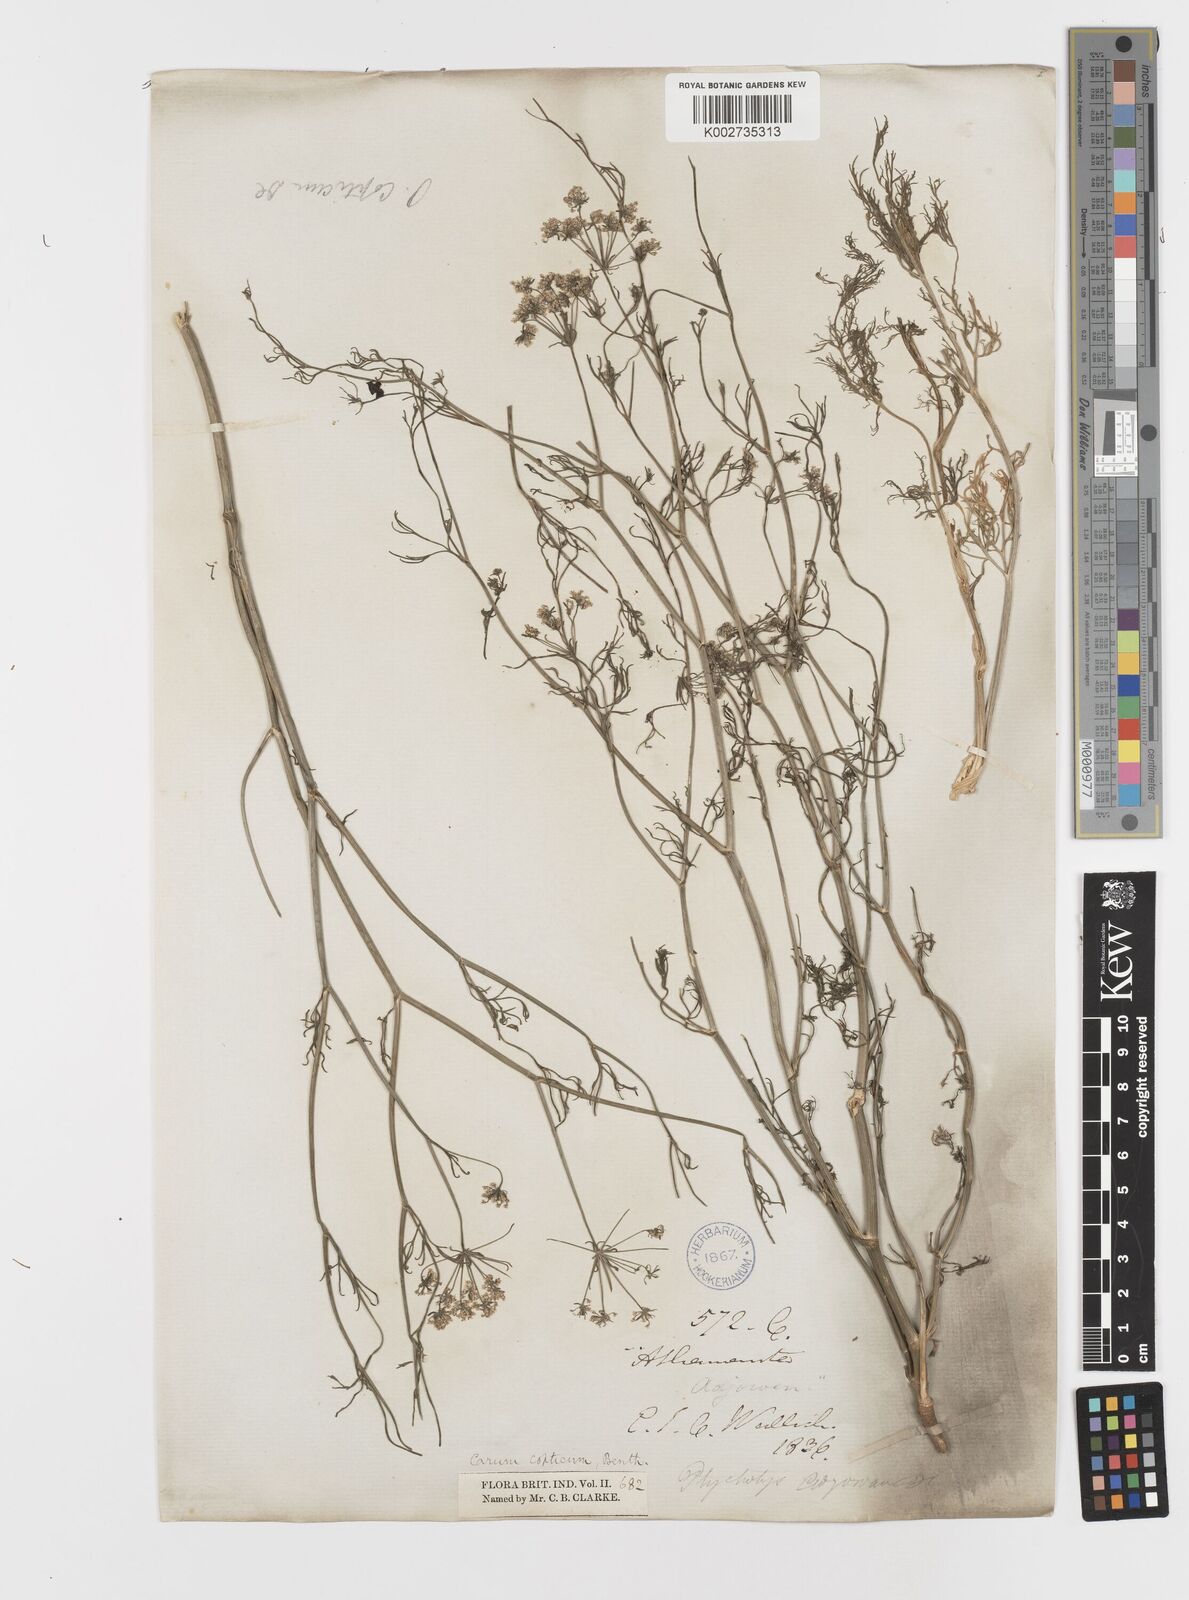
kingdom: Plantae
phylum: Tracheophyta
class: Magnoliopsida
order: Apiales
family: Apiaceae
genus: Trachyspermum
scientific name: Trachyspermum ammi
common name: Ajowan
